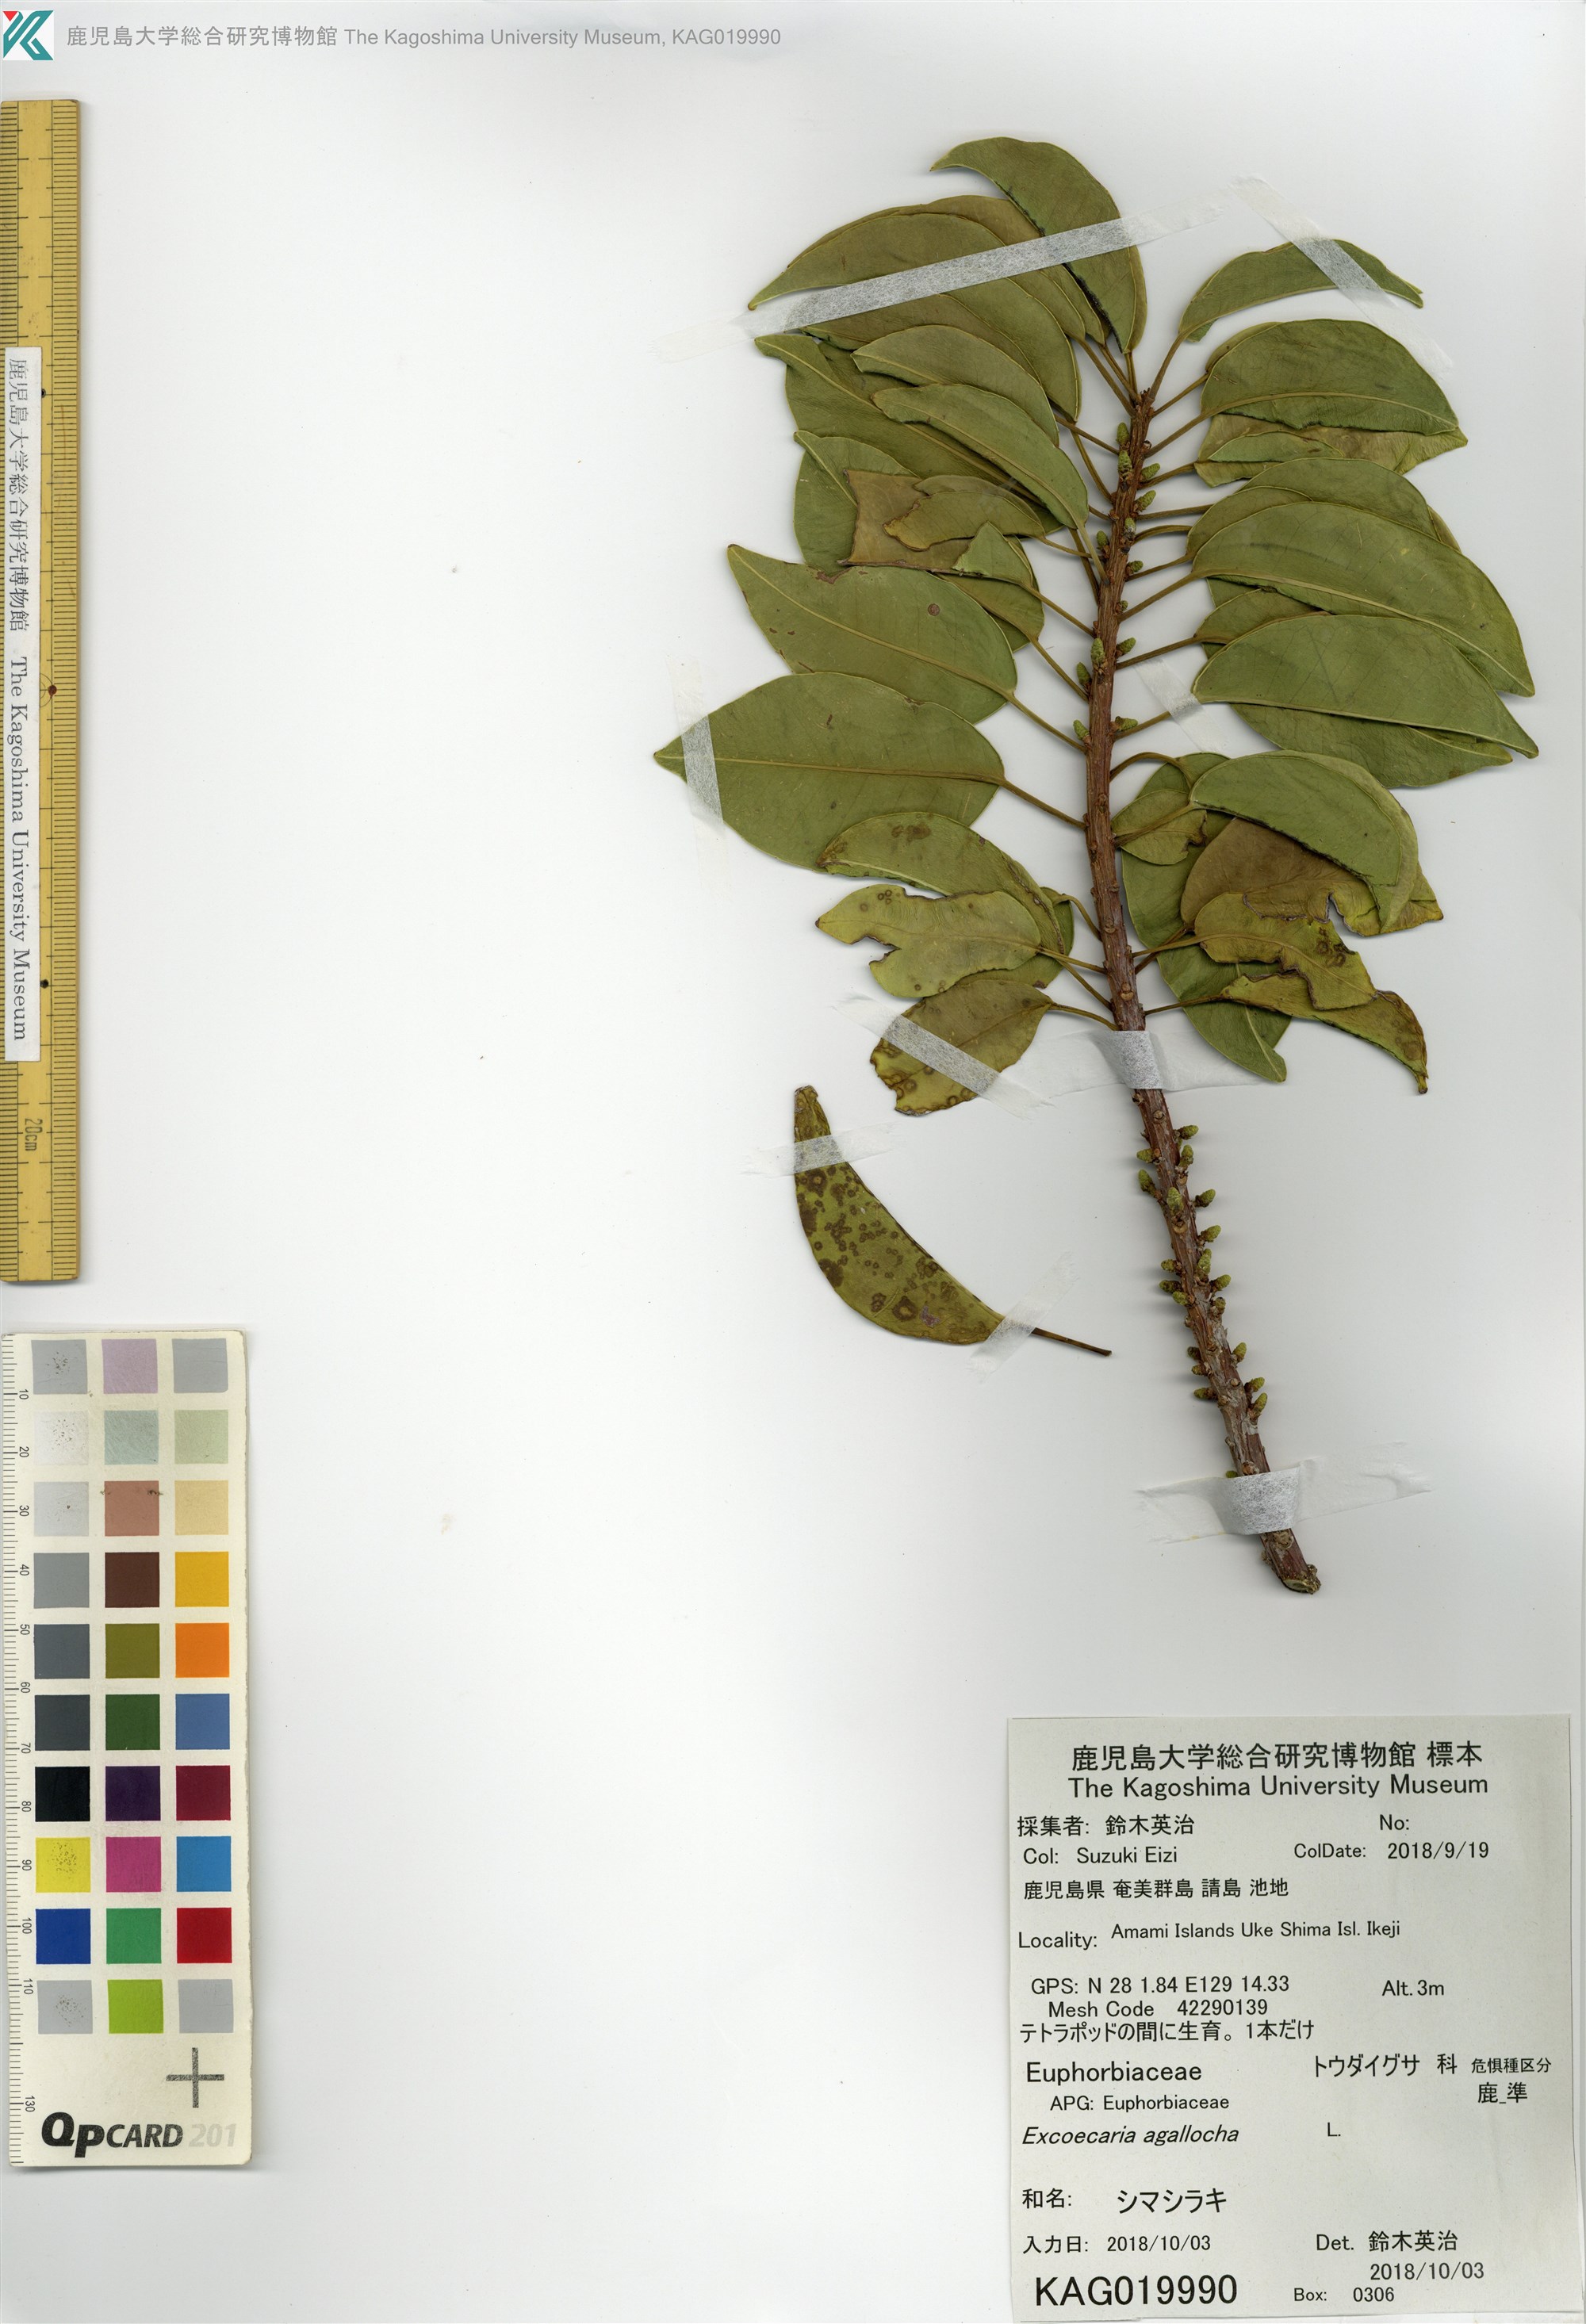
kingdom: Plantae
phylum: Tracheophyta
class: Magnoliopsida
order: Malpighiales
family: Euphorbiaceae
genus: Excoecaria
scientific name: Excoecaria agallocha
